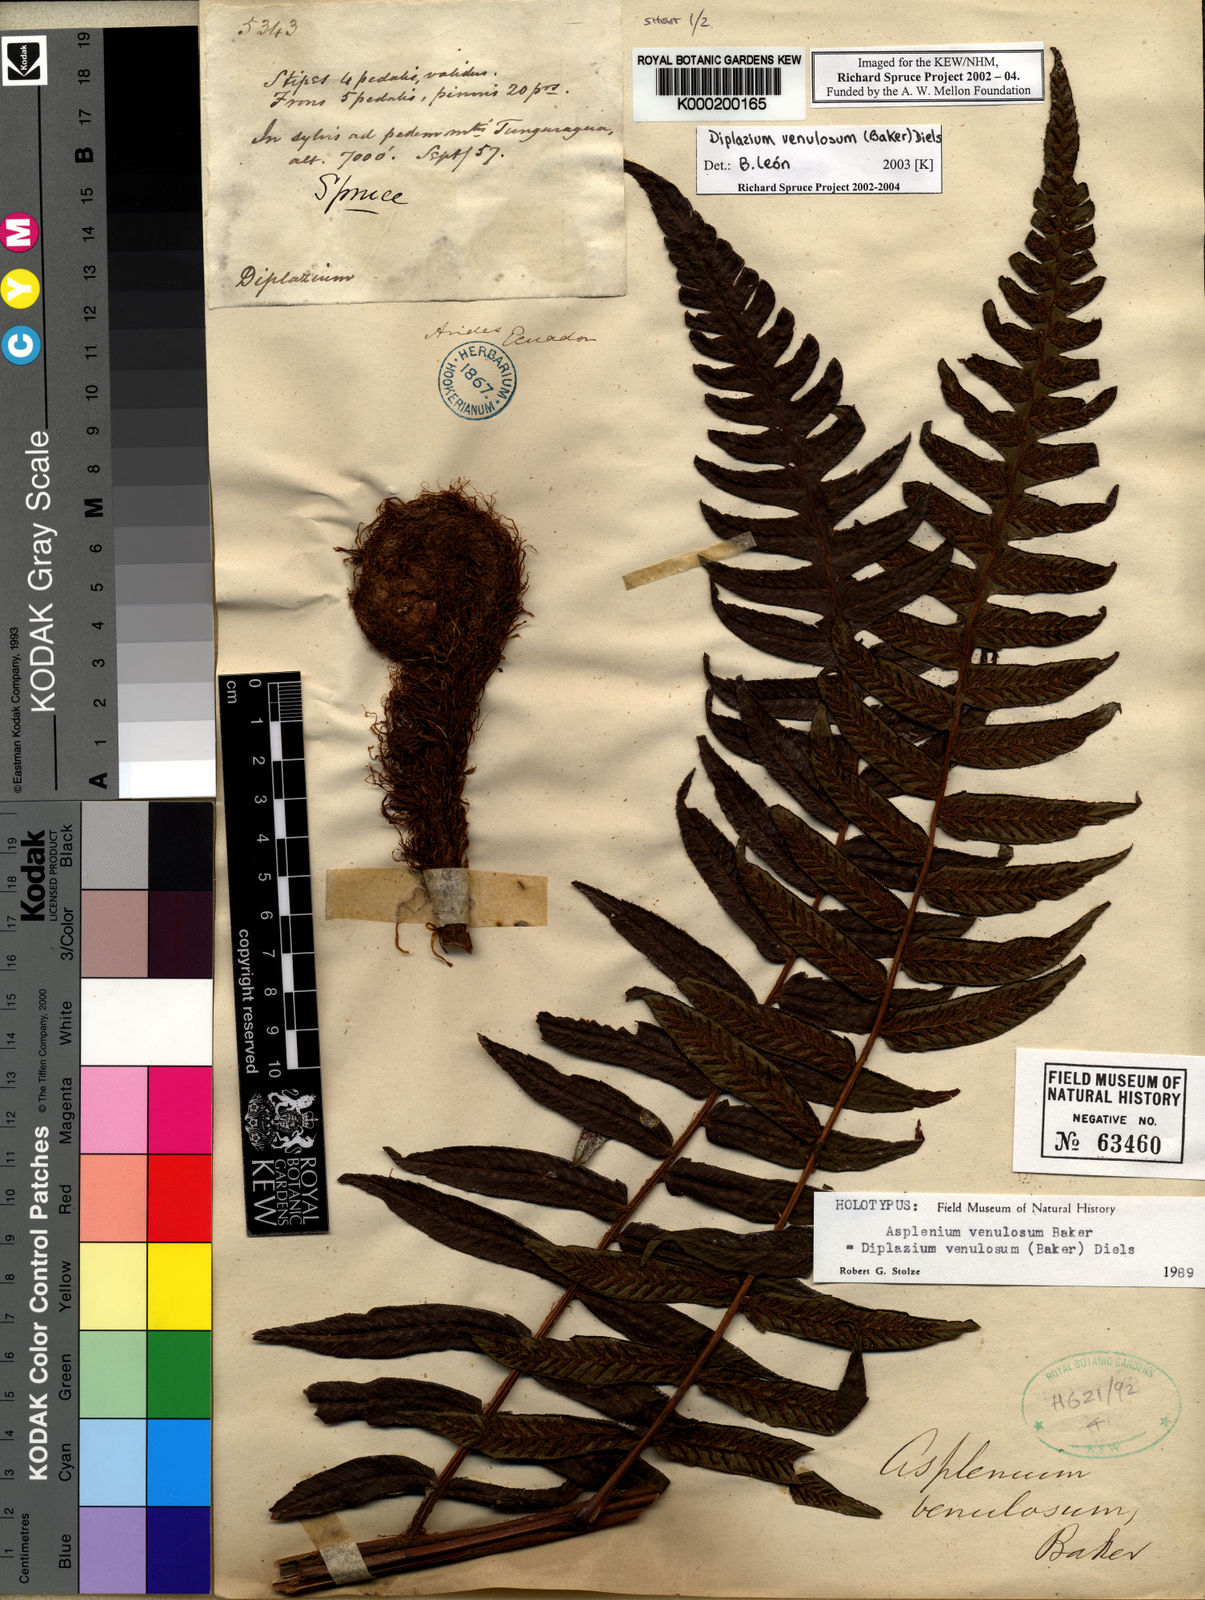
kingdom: Plantae
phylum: Tracheophyta
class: Polypodiopsida
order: Polypodiales
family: Athyriaceae
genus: Diplazium
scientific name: Diplazium venulosum
